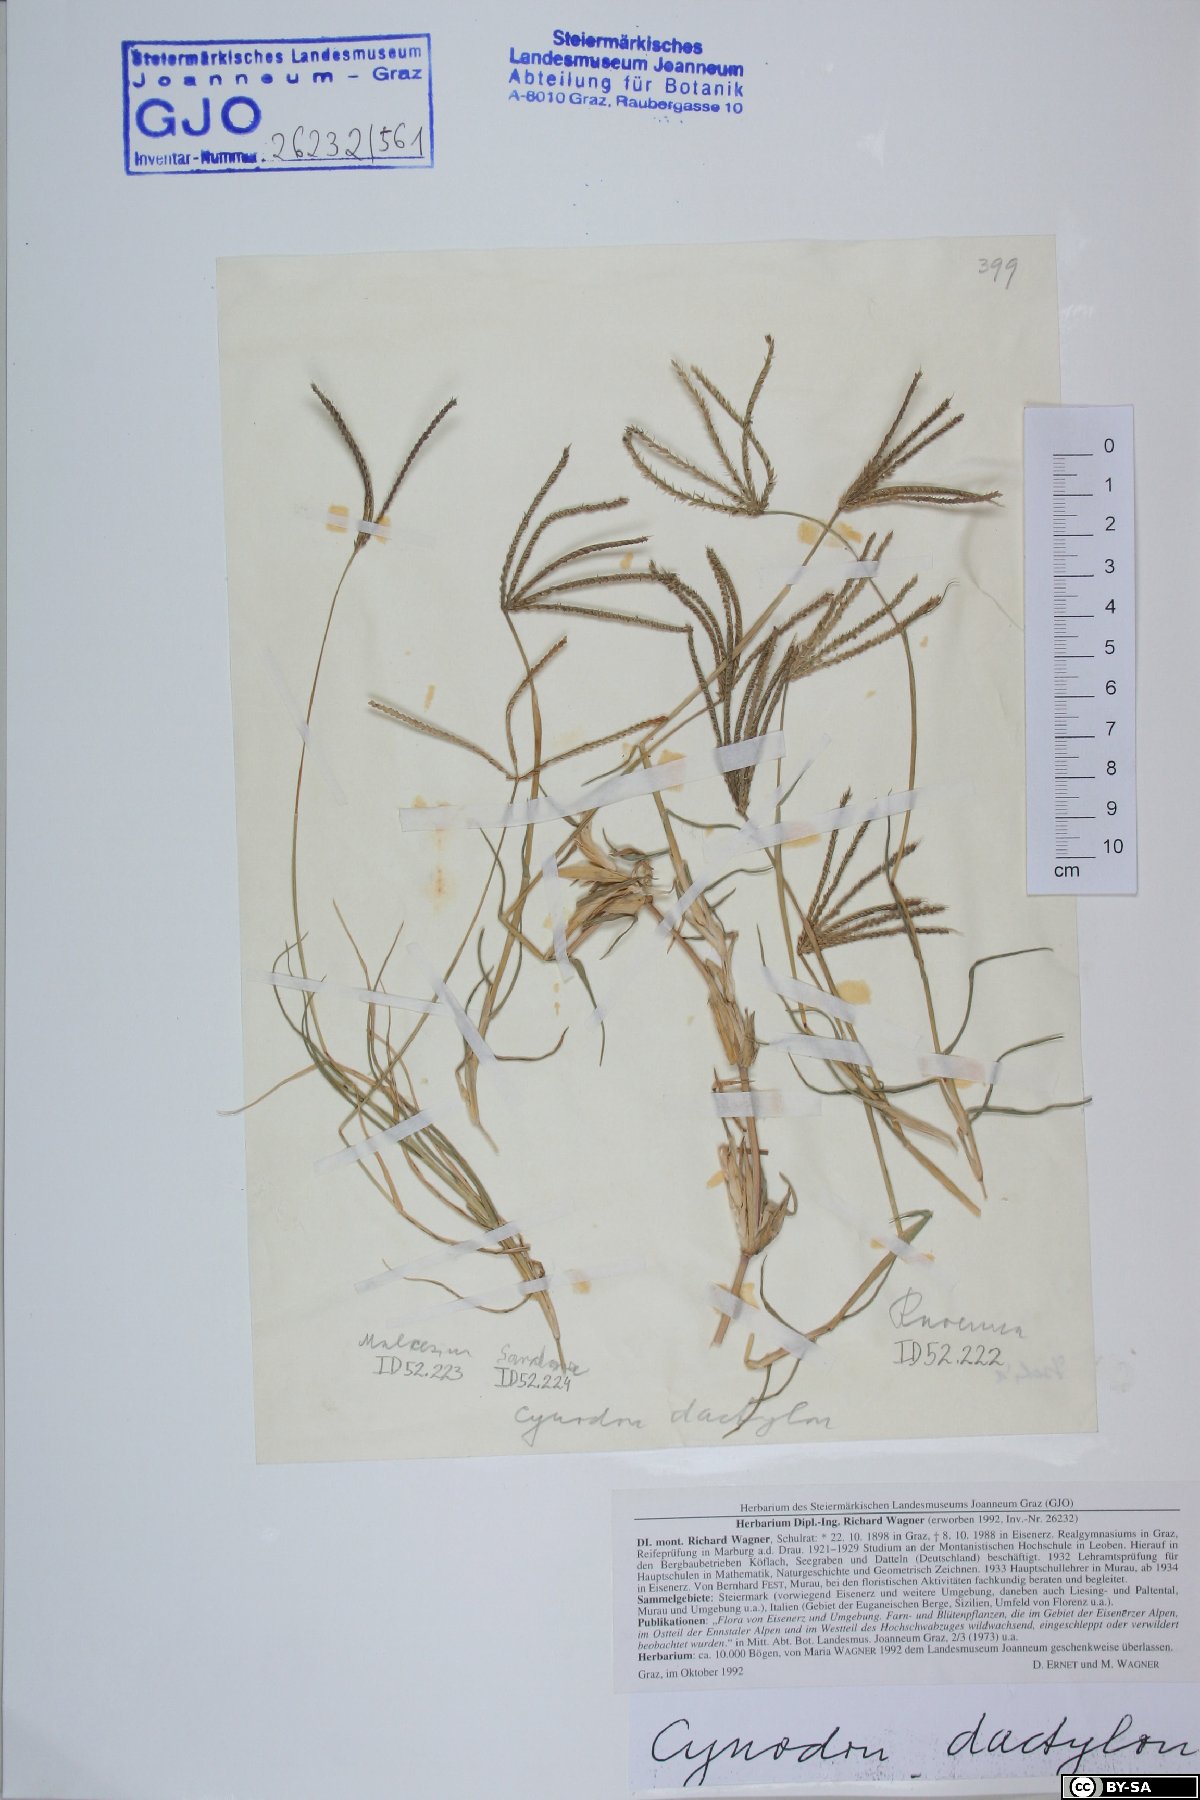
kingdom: Plantae
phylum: Tracheophyta
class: Liliopsida
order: Poales
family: Poaceae
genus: Cynodon
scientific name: Cynodon dactylon
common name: Bermuda grass
